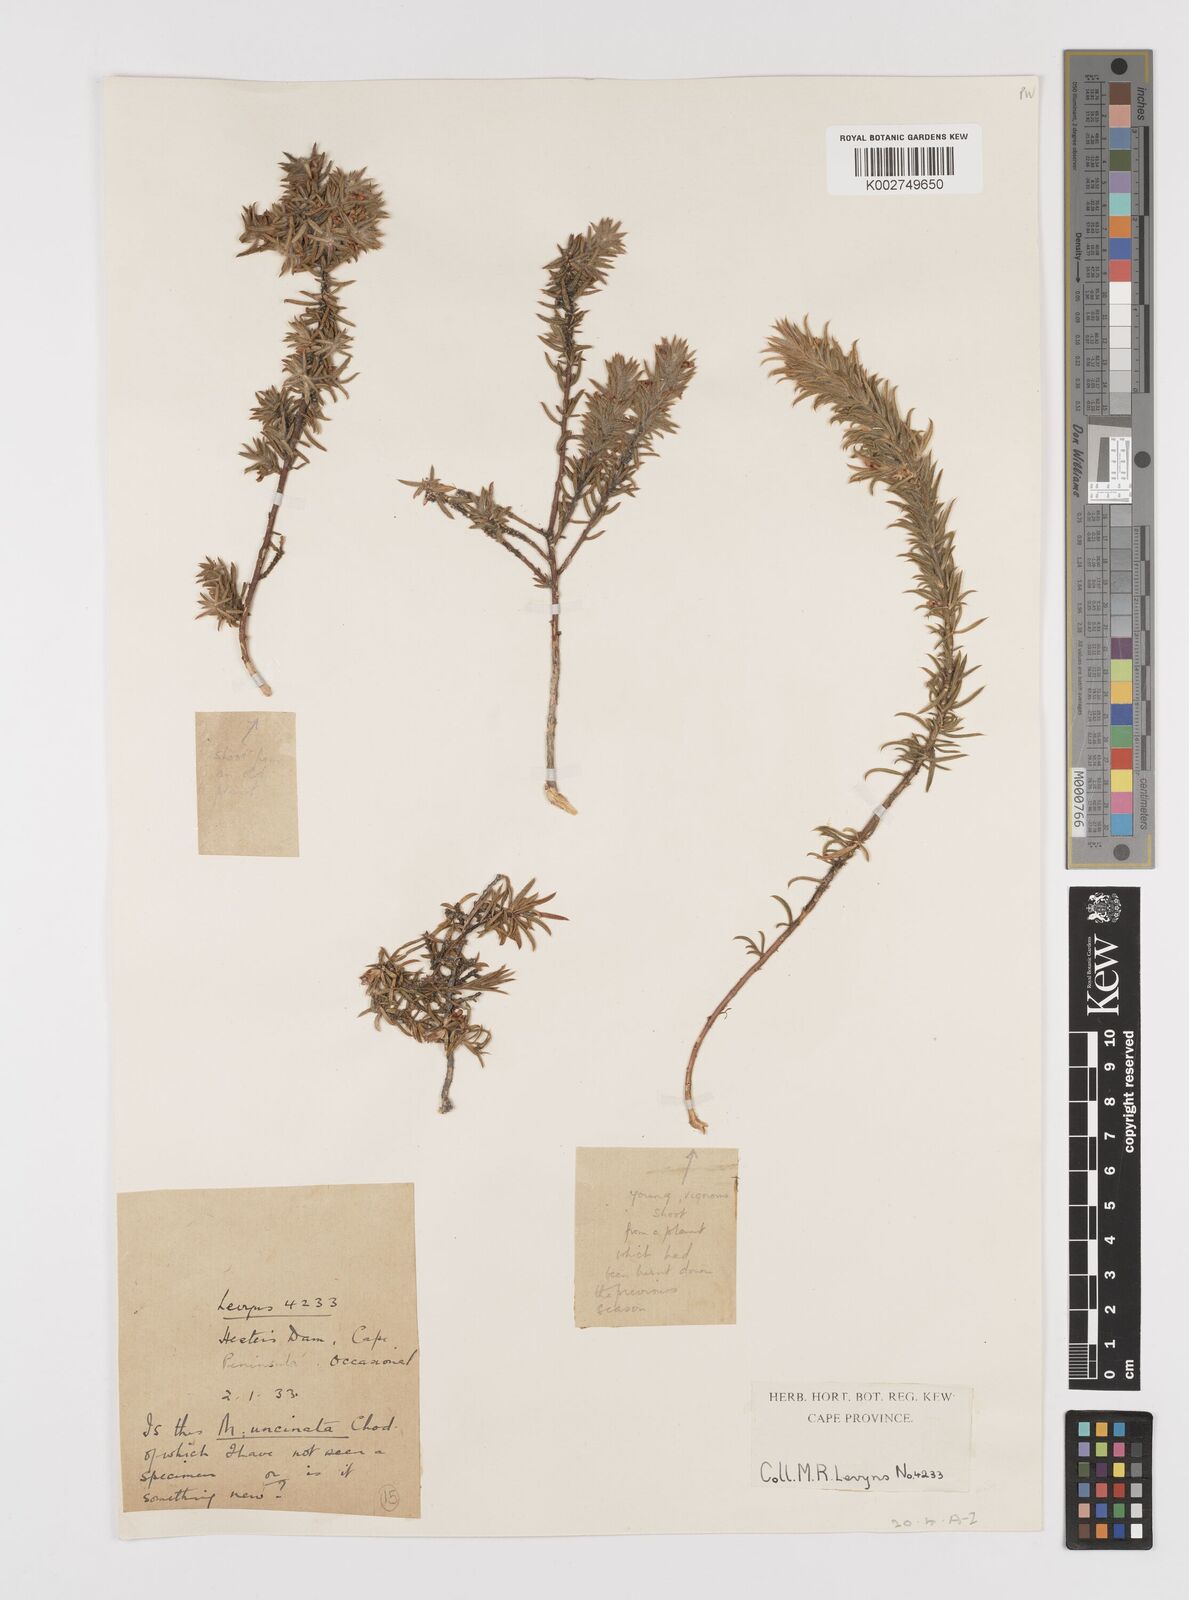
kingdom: Plantae
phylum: Tracheophyta
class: Magnoliopsida
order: Fabales
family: Polygalaceae
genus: Muraltia
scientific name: Muraltia alopecuroides
